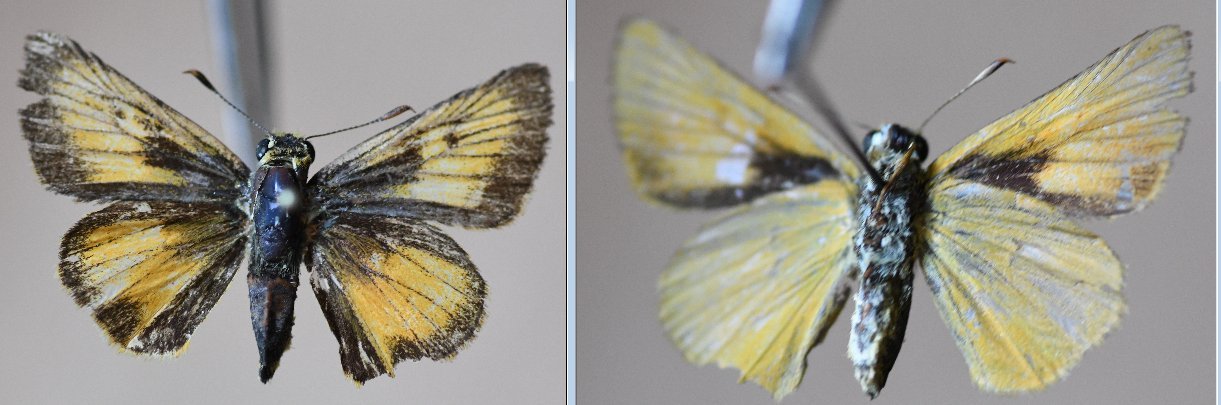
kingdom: Animalia
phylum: Arthropoda
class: Insecta
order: Lepidoptera
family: Hesperiidae
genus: Atrytone
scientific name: Atrytone delaware
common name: Delaware Skipper
